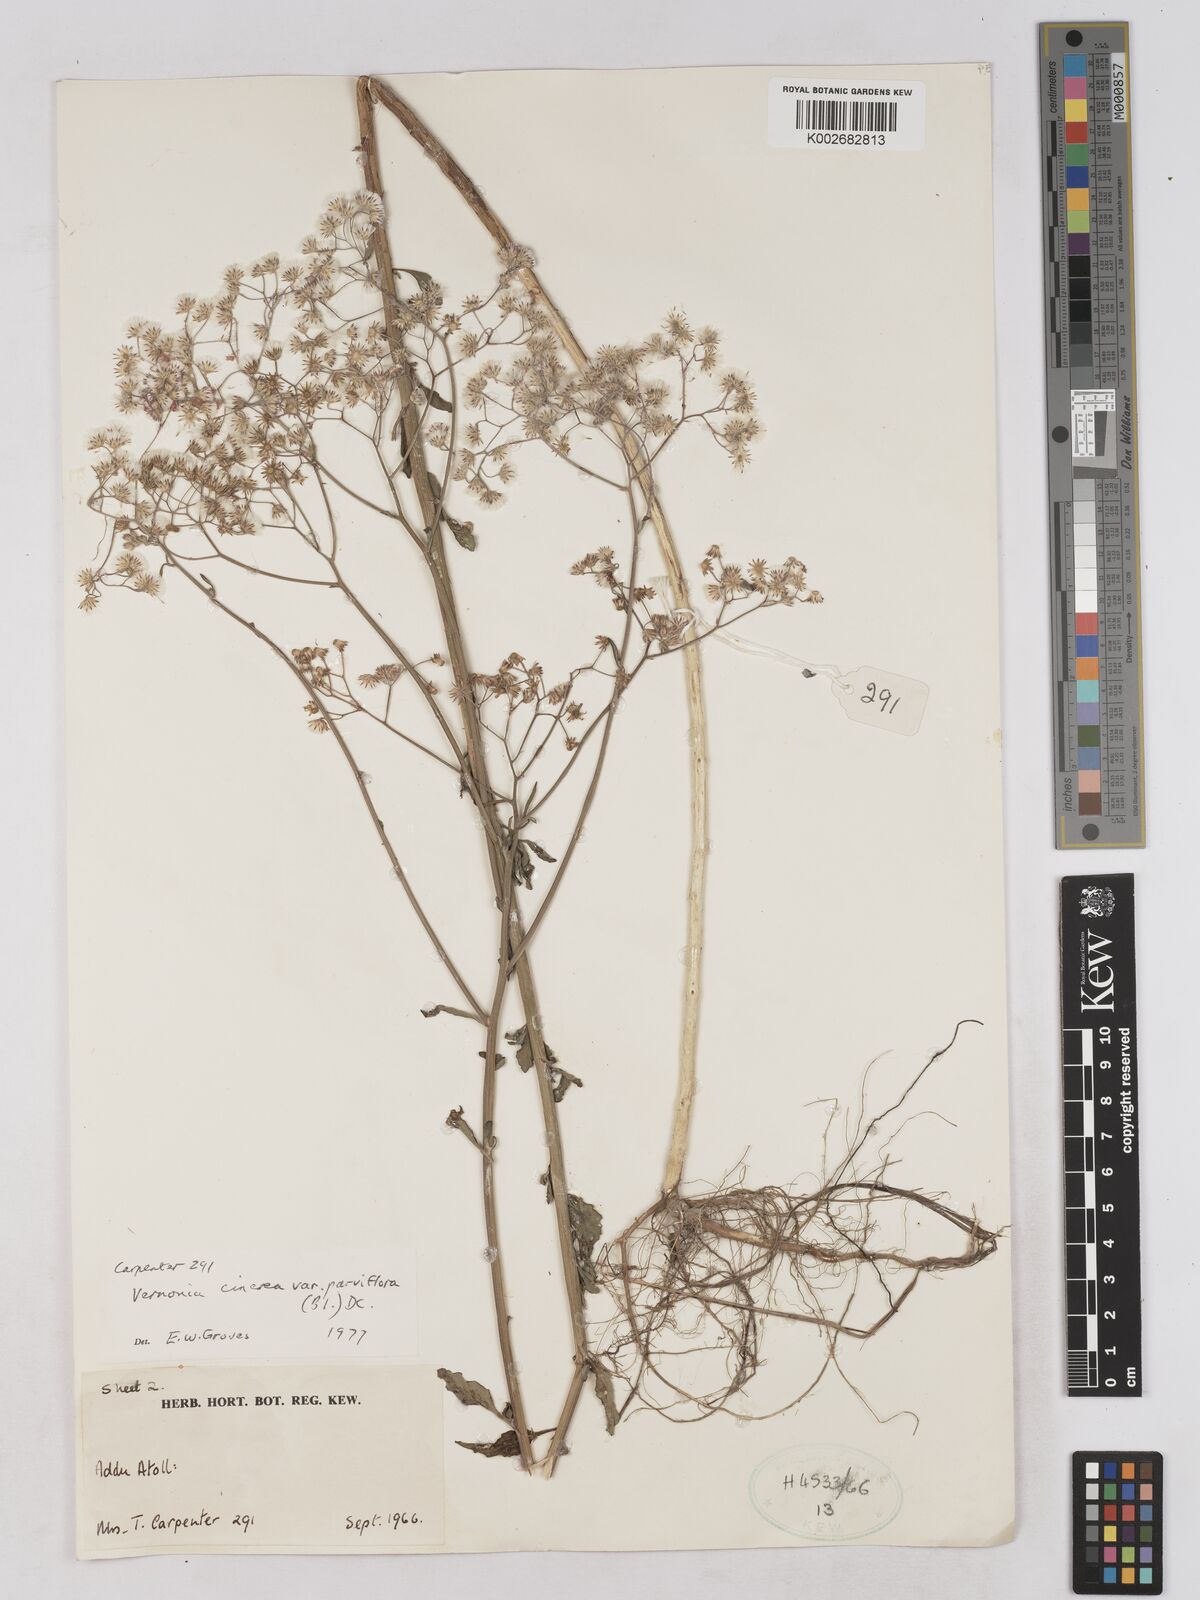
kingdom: Plantae
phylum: Tracheophyta
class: Magnoliopsida
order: Asterales
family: Asteraceae
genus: Cyanthillium
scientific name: Cyanthillium cinereum
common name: Little ironweed
